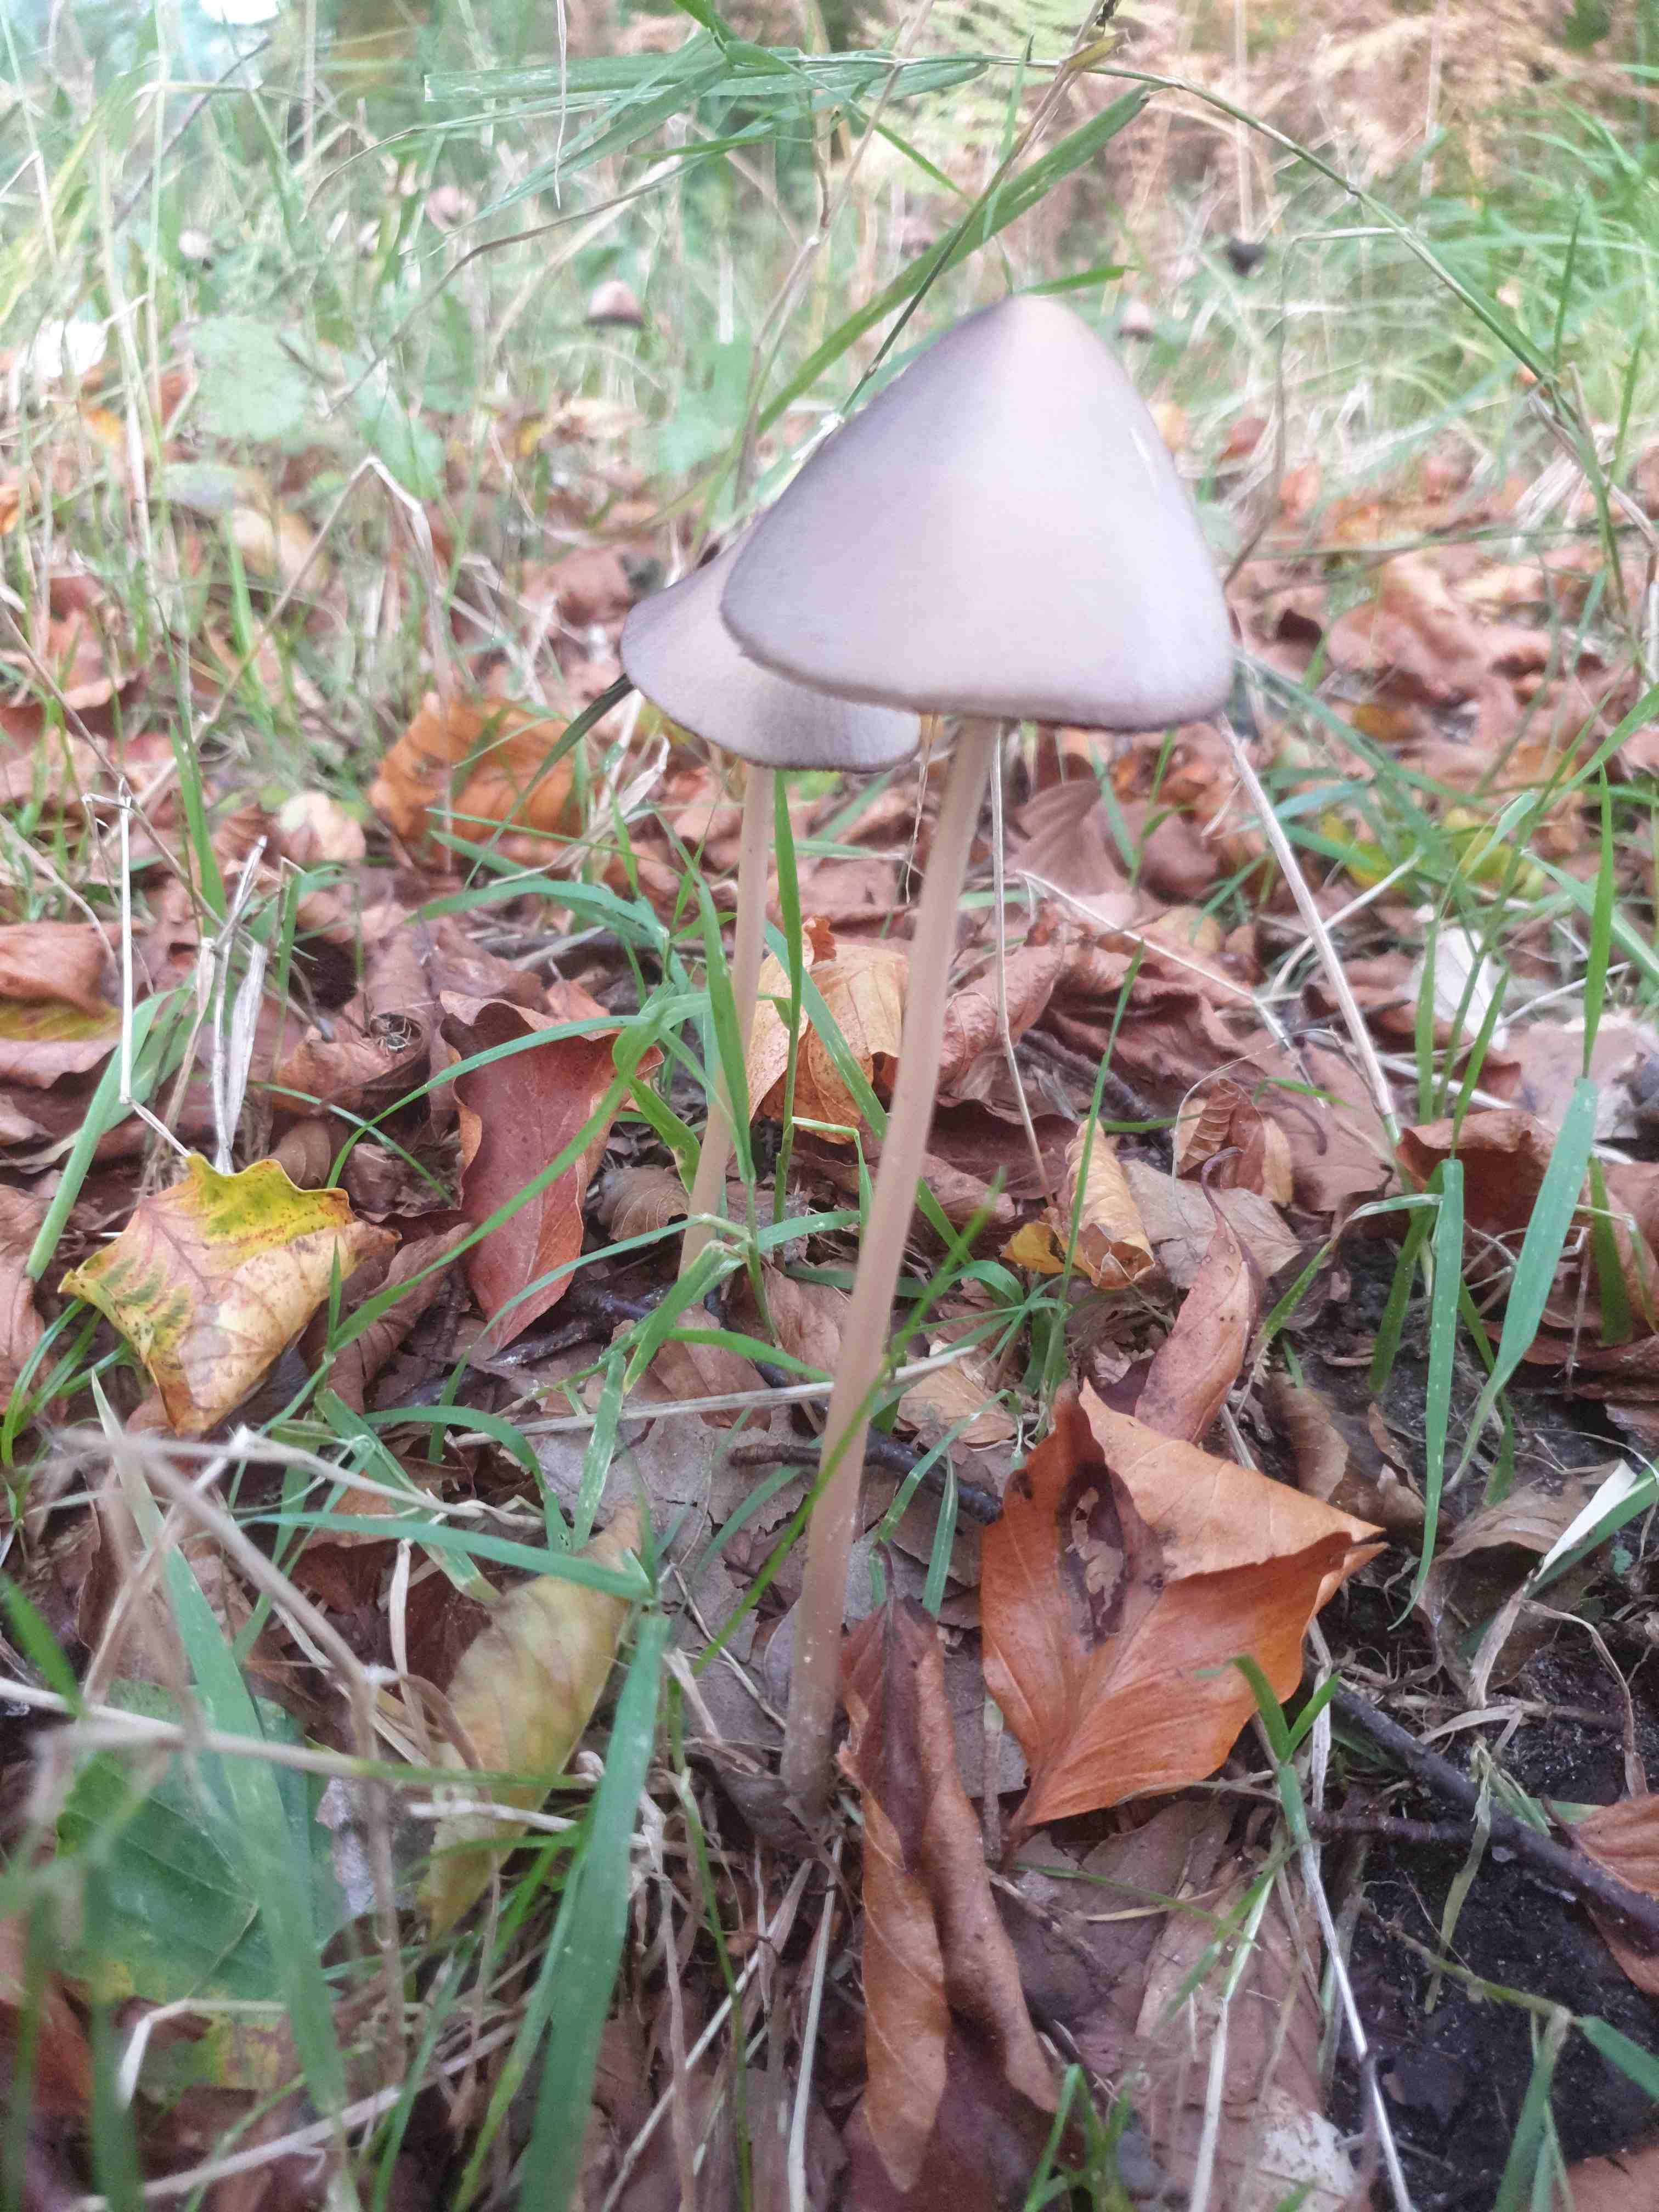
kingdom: Fungi
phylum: Basidiomycota
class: Agaricomycetes
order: Agaricales
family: Psathyrellaceae
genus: Parasola
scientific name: Parasola conopilea
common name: kegle-hjulhat
